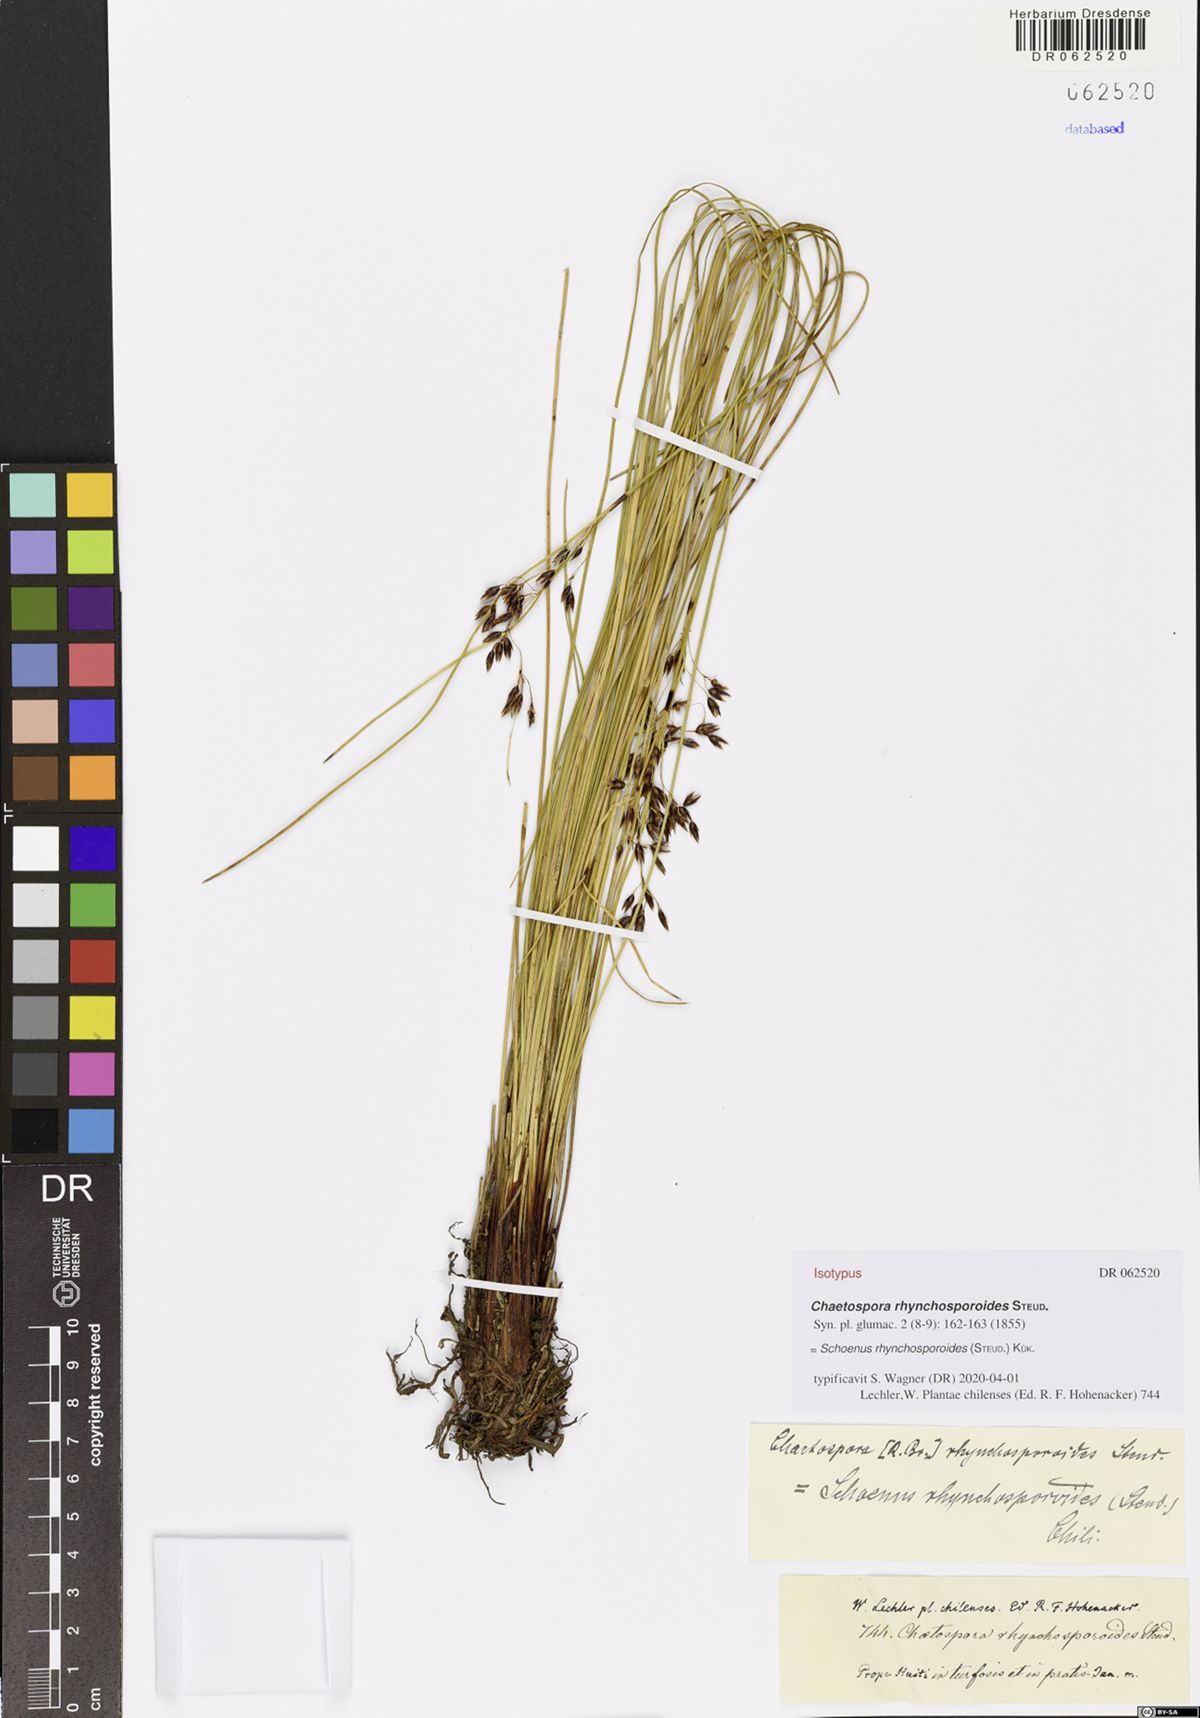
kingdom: Plantae
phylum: Tracheophyta
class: Liliopsida
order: Poales
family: Cyperaceae
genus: Schoenus
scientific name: Schoenus rhynchosporoides
